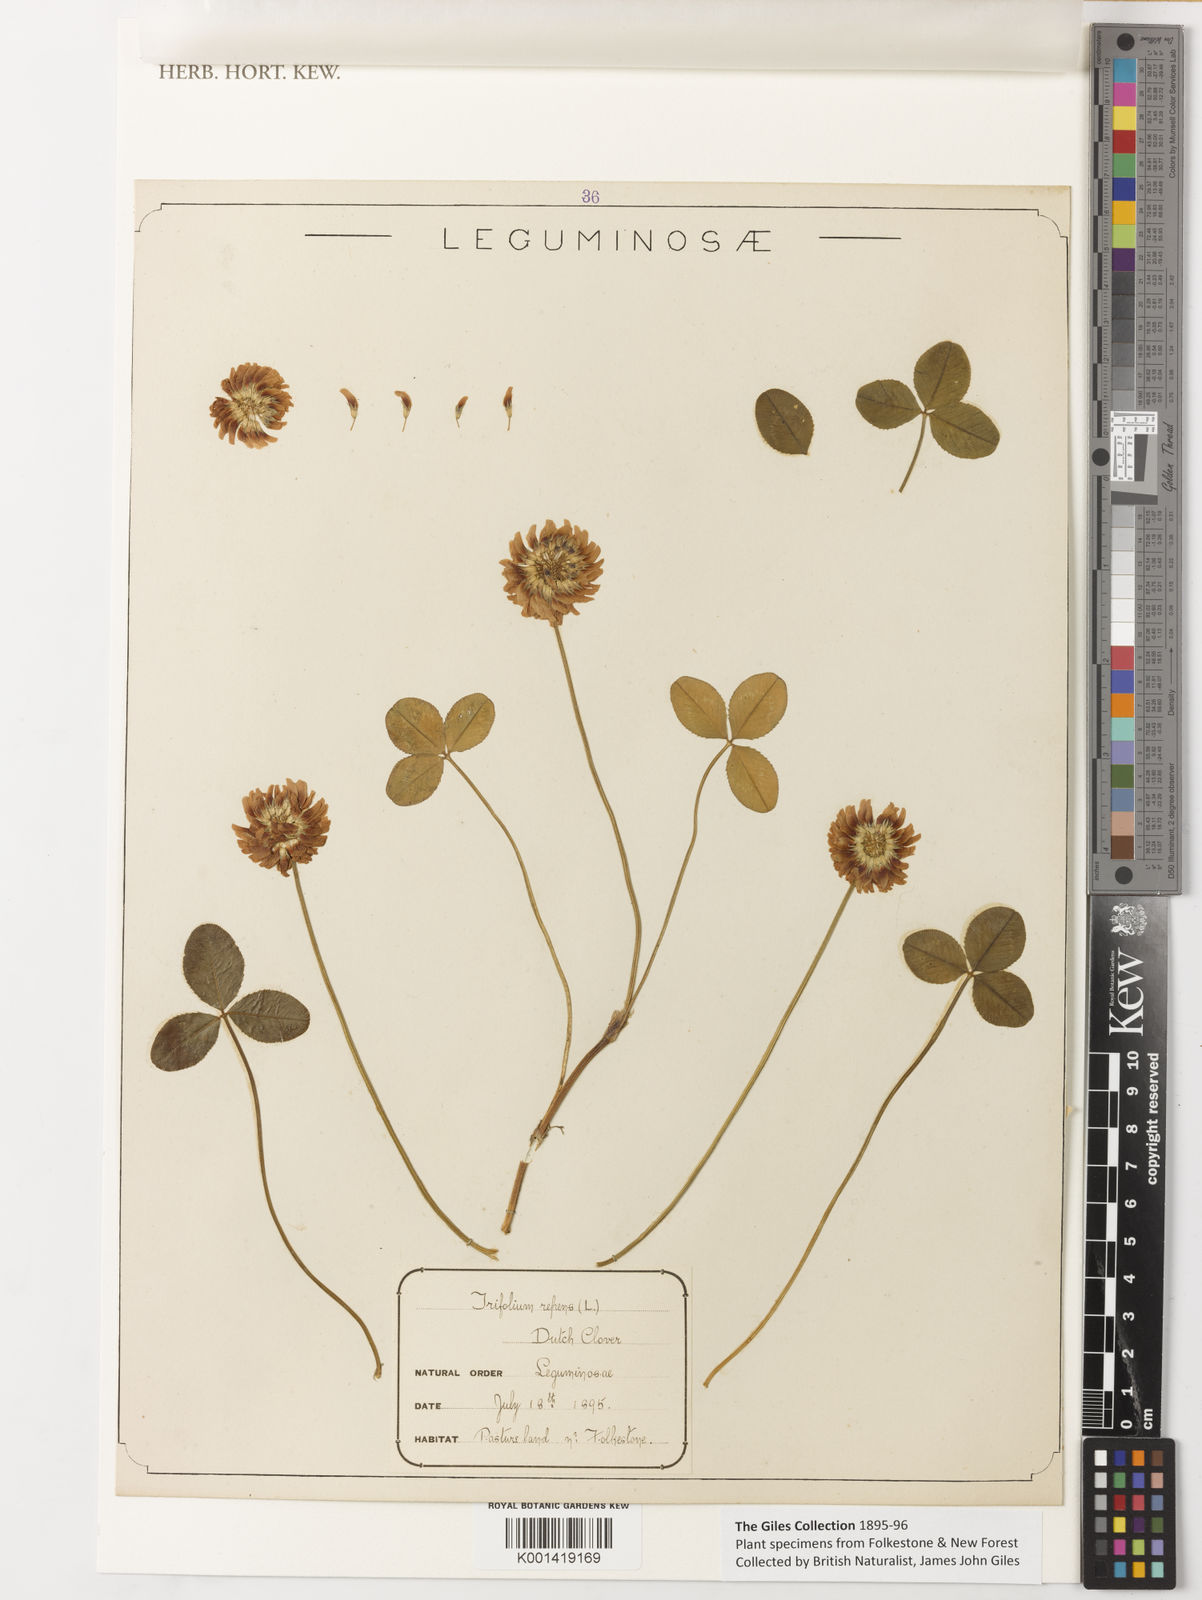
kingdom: Plantae
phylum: Tracheophyta
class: Magnoliopsida
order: Fabales
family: Fabaceae
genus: Trifolium
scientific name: Trifolium repens
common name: White clover
